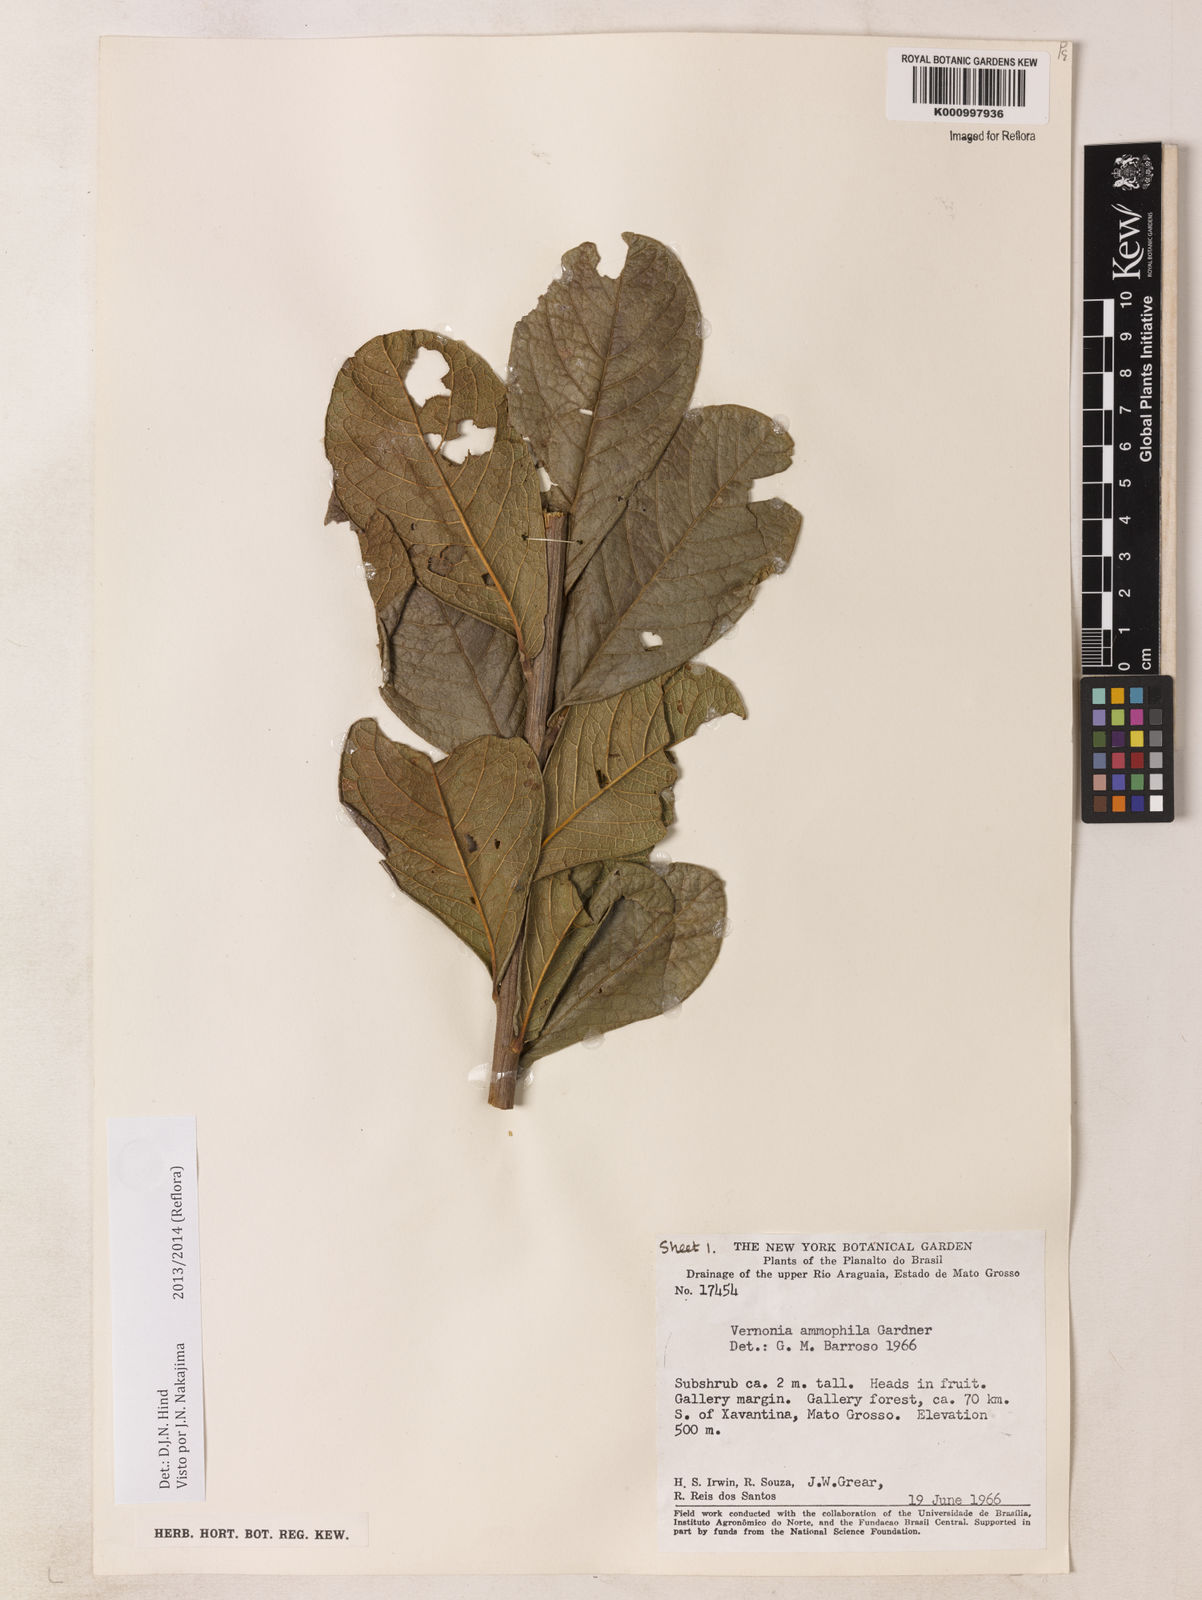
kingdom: Plantae
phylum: Tracheophyta
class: Magnoliopsida
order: Asterales
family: Asteraceae
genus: Lessingianthus
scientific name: Lessingianthus ammophilus
